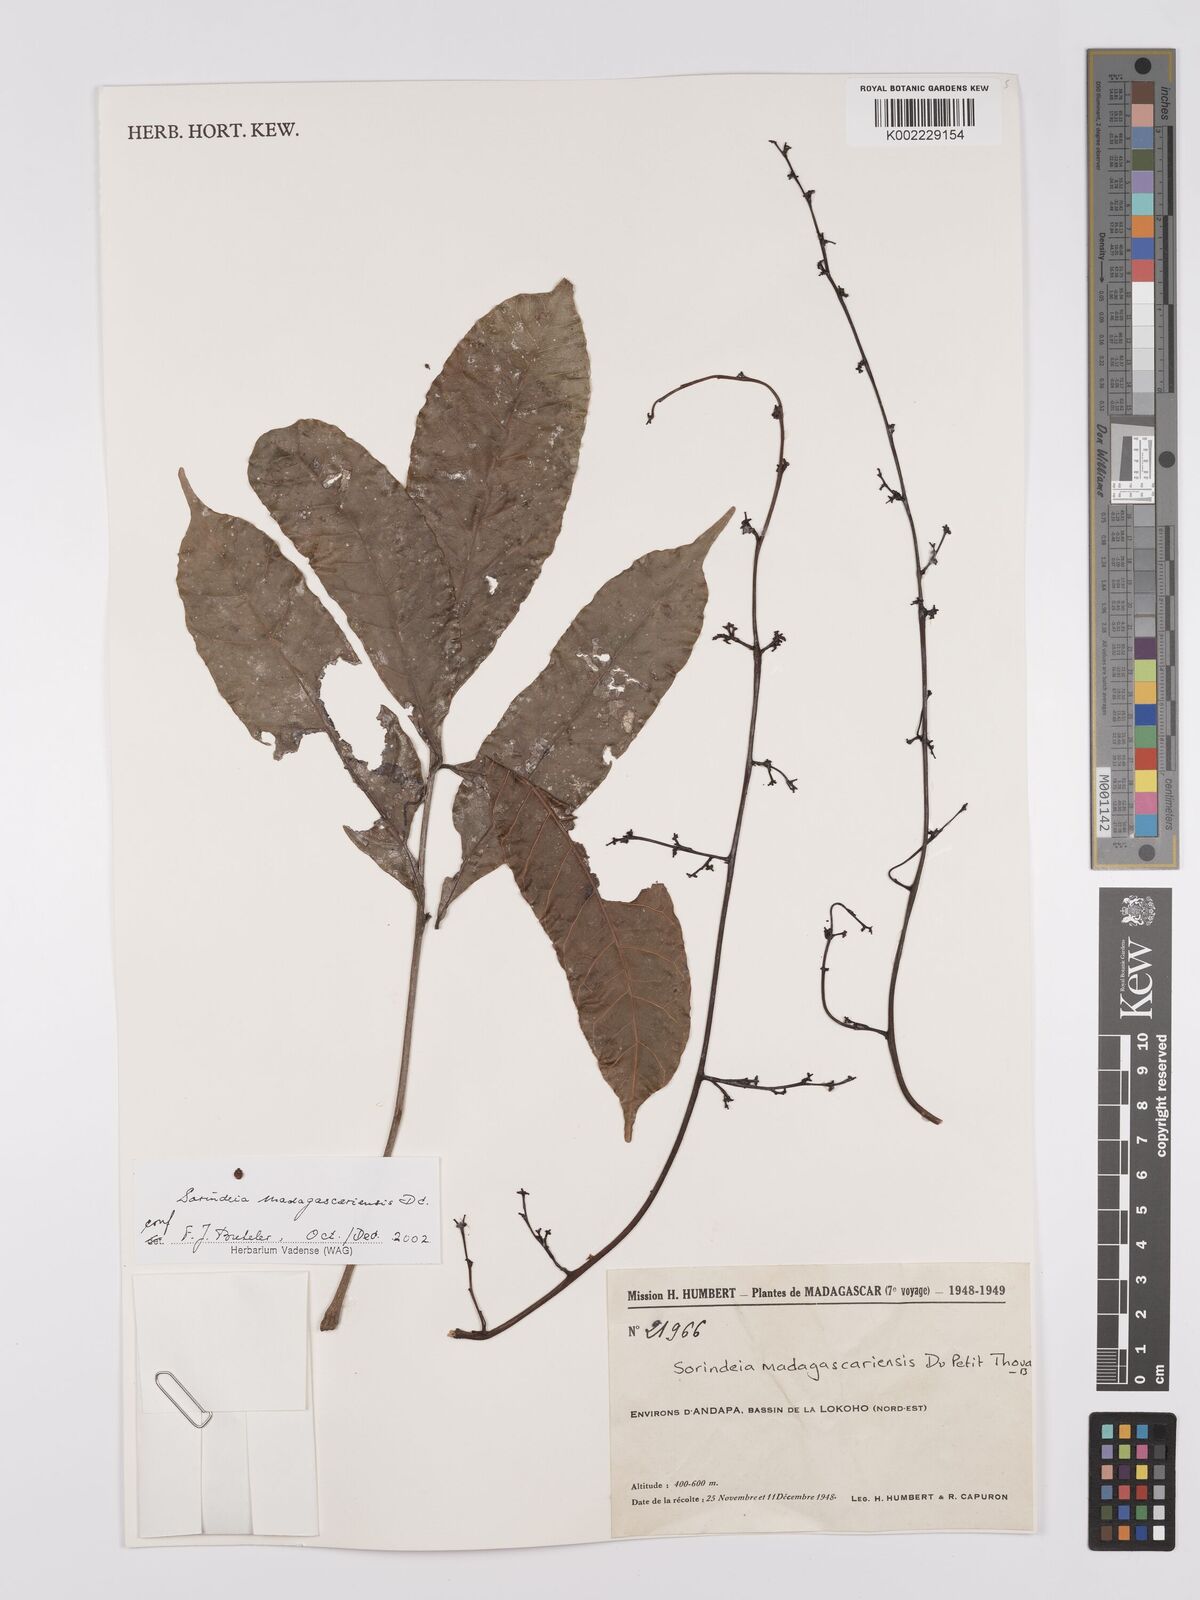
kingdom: Plantae
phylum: Tracheophyta
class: Magnoliopsida
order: Sapindales
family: Anacardiaceae
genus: Sorindeia
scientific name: Sorindeia madagascariensis
